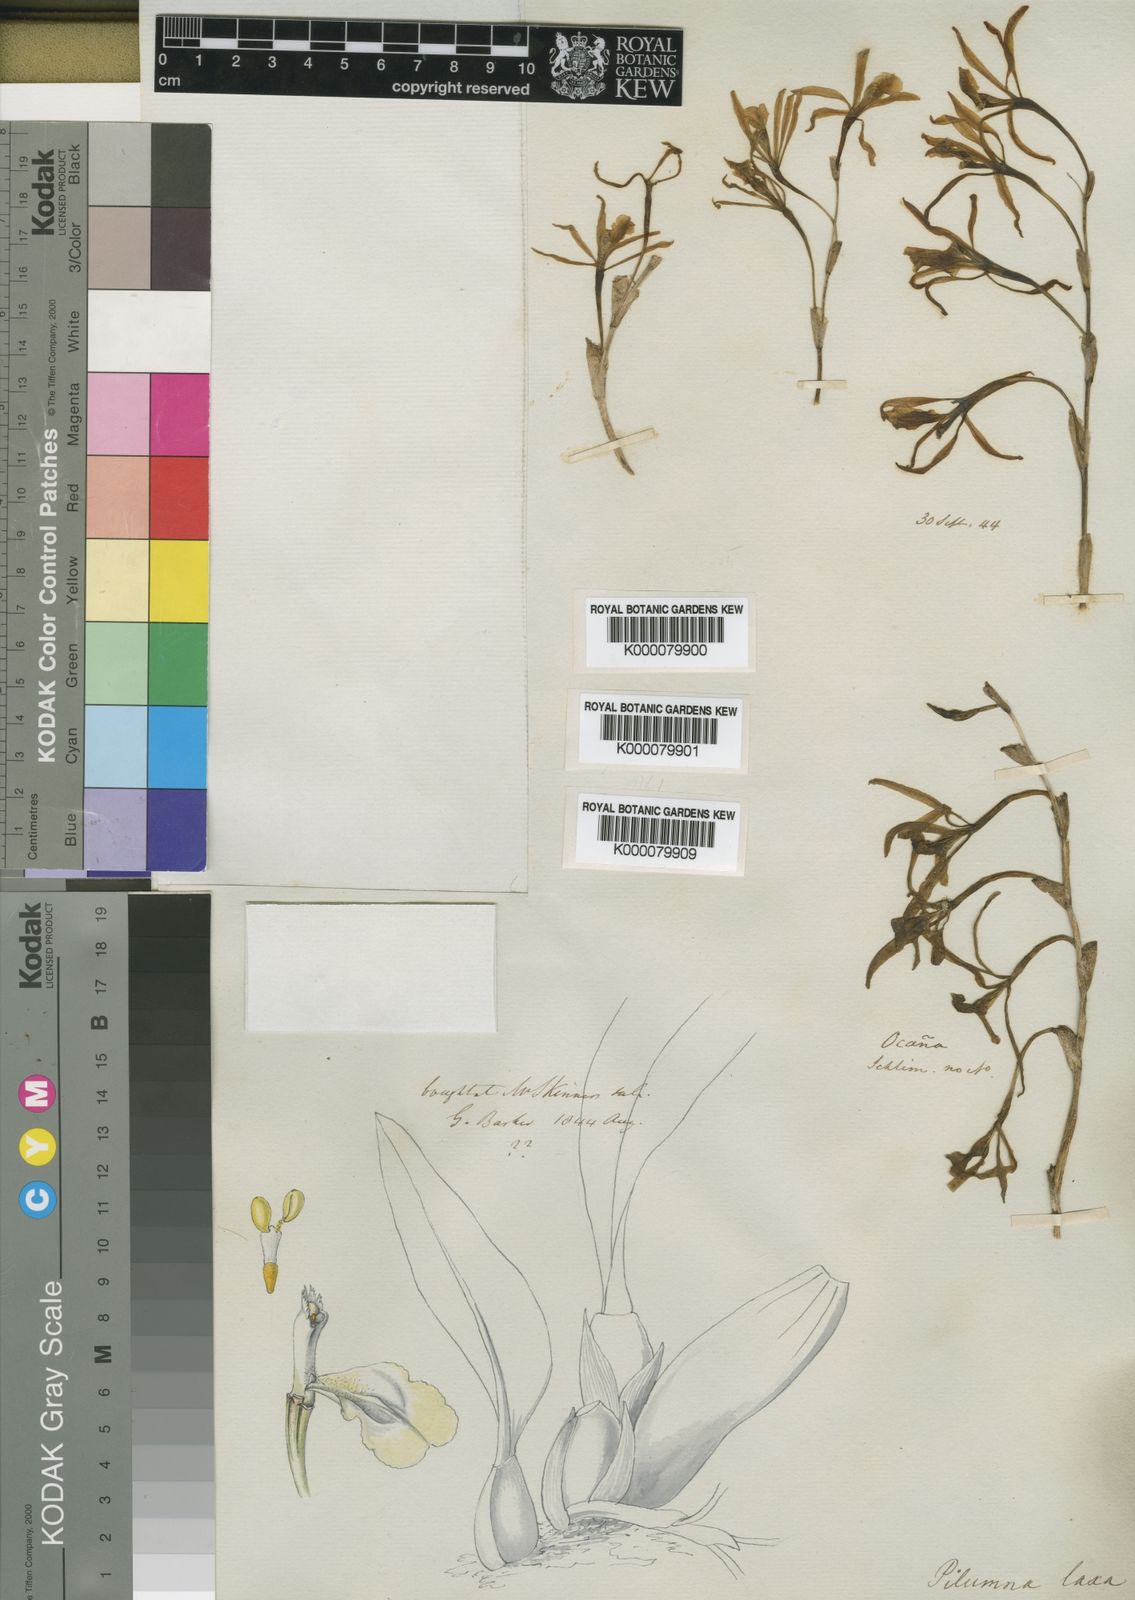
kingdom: Plantae
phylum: Tracheophyta
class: Liliopsida
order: Asparagales
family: Orchidaceae
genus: Trichopilia
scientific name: Trichopilia laxa
